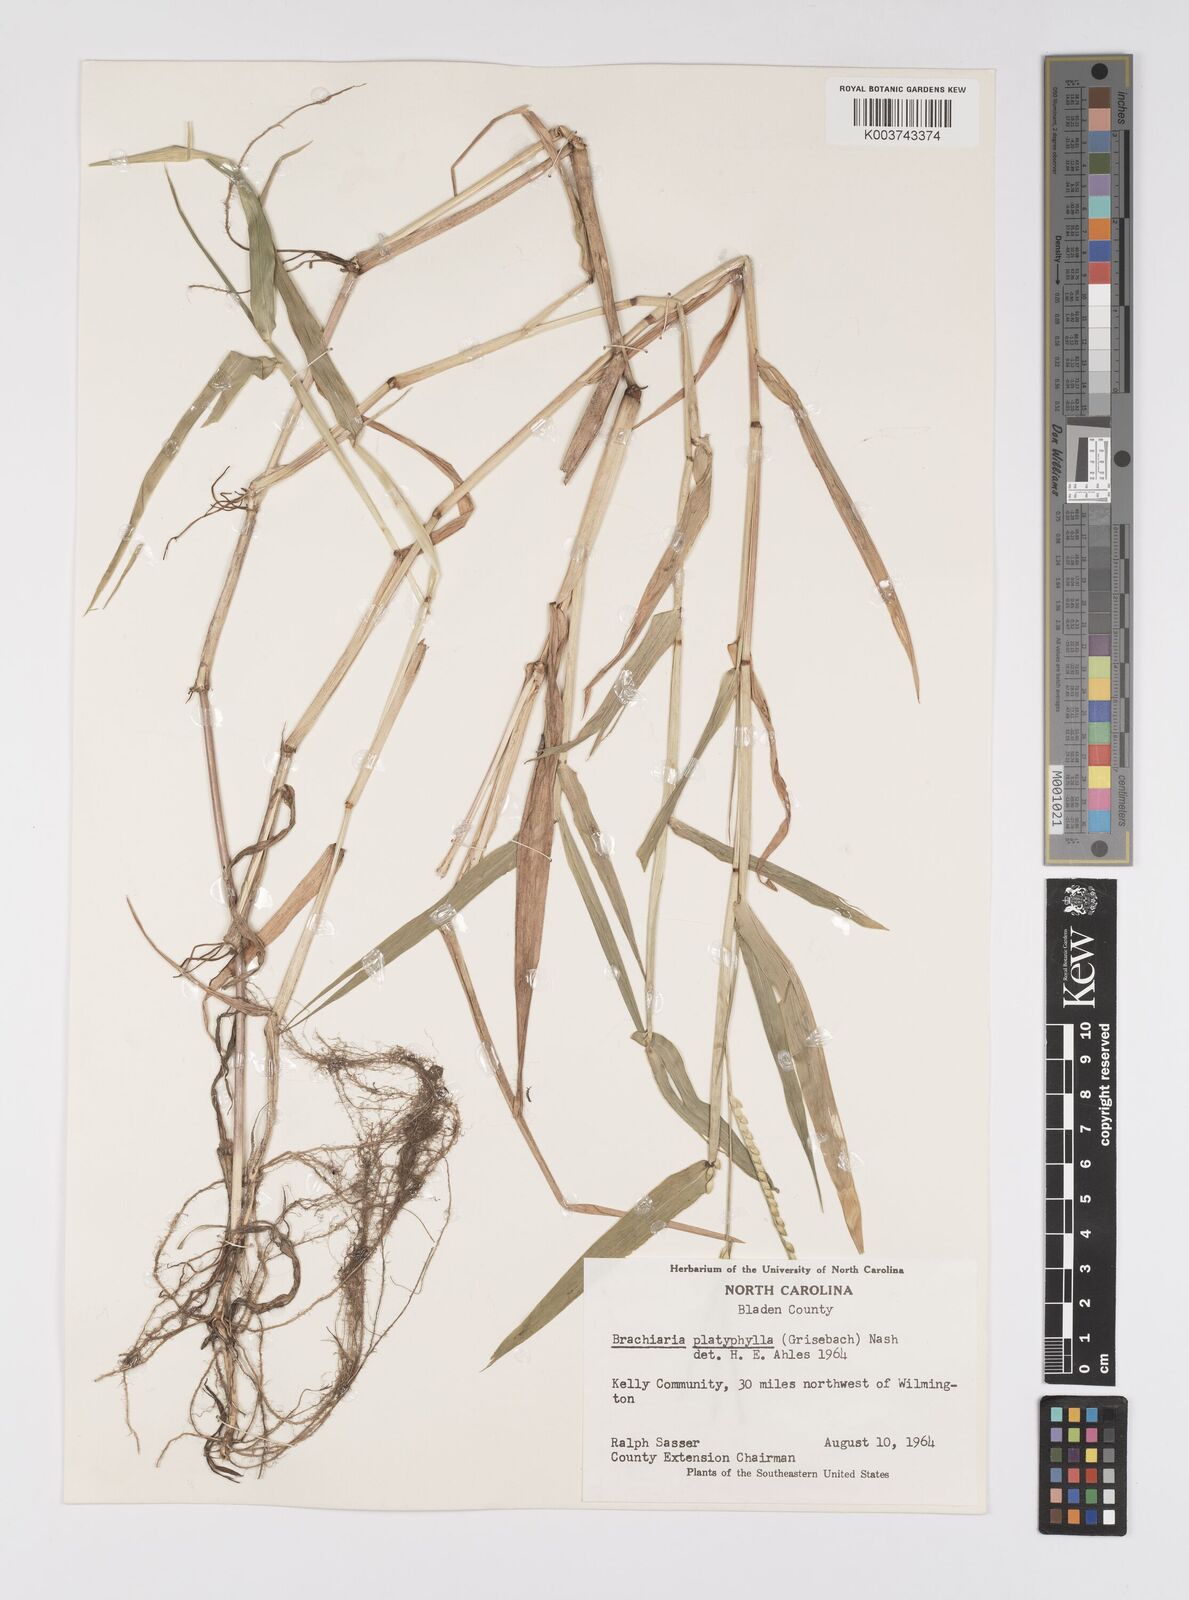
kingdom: Plantae
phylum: Tracheophyta
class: Liliopsida
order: Poales
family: Poaceae
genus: Urochloa
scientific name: Urochloa platyphylla
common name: White para grass
